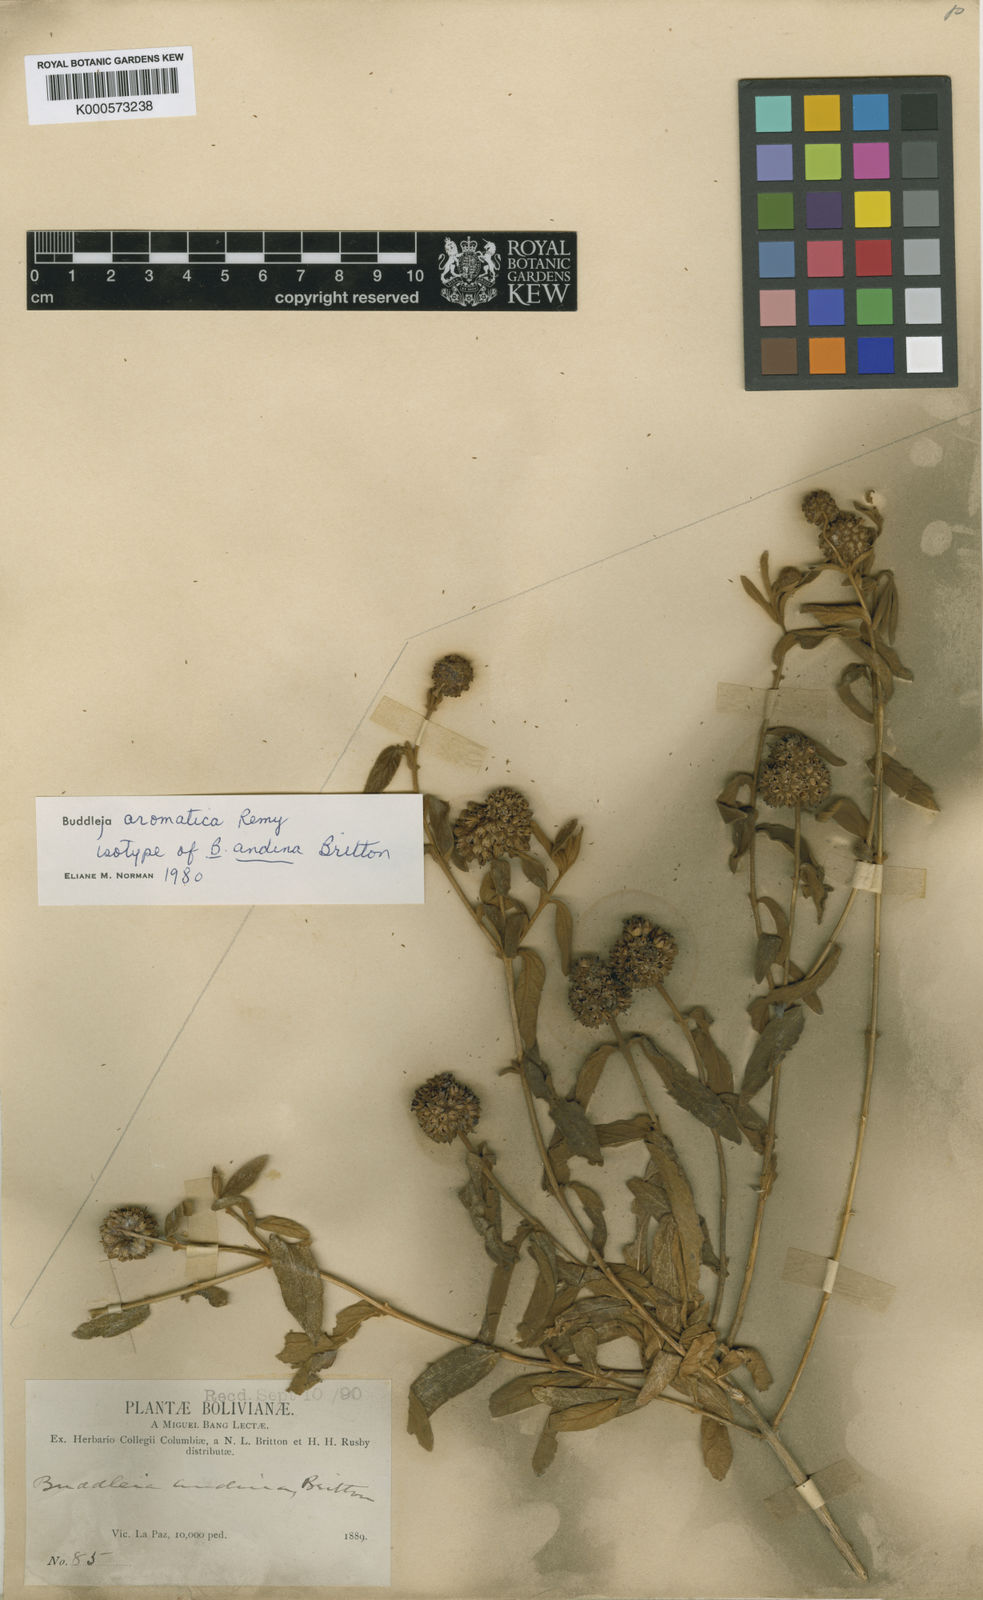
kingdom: Plantae
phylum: Tracheophyta
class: Magnoliopsida
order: Lamiales
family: Scrophulariaceae
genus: Buddleja
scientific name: Buddleja
